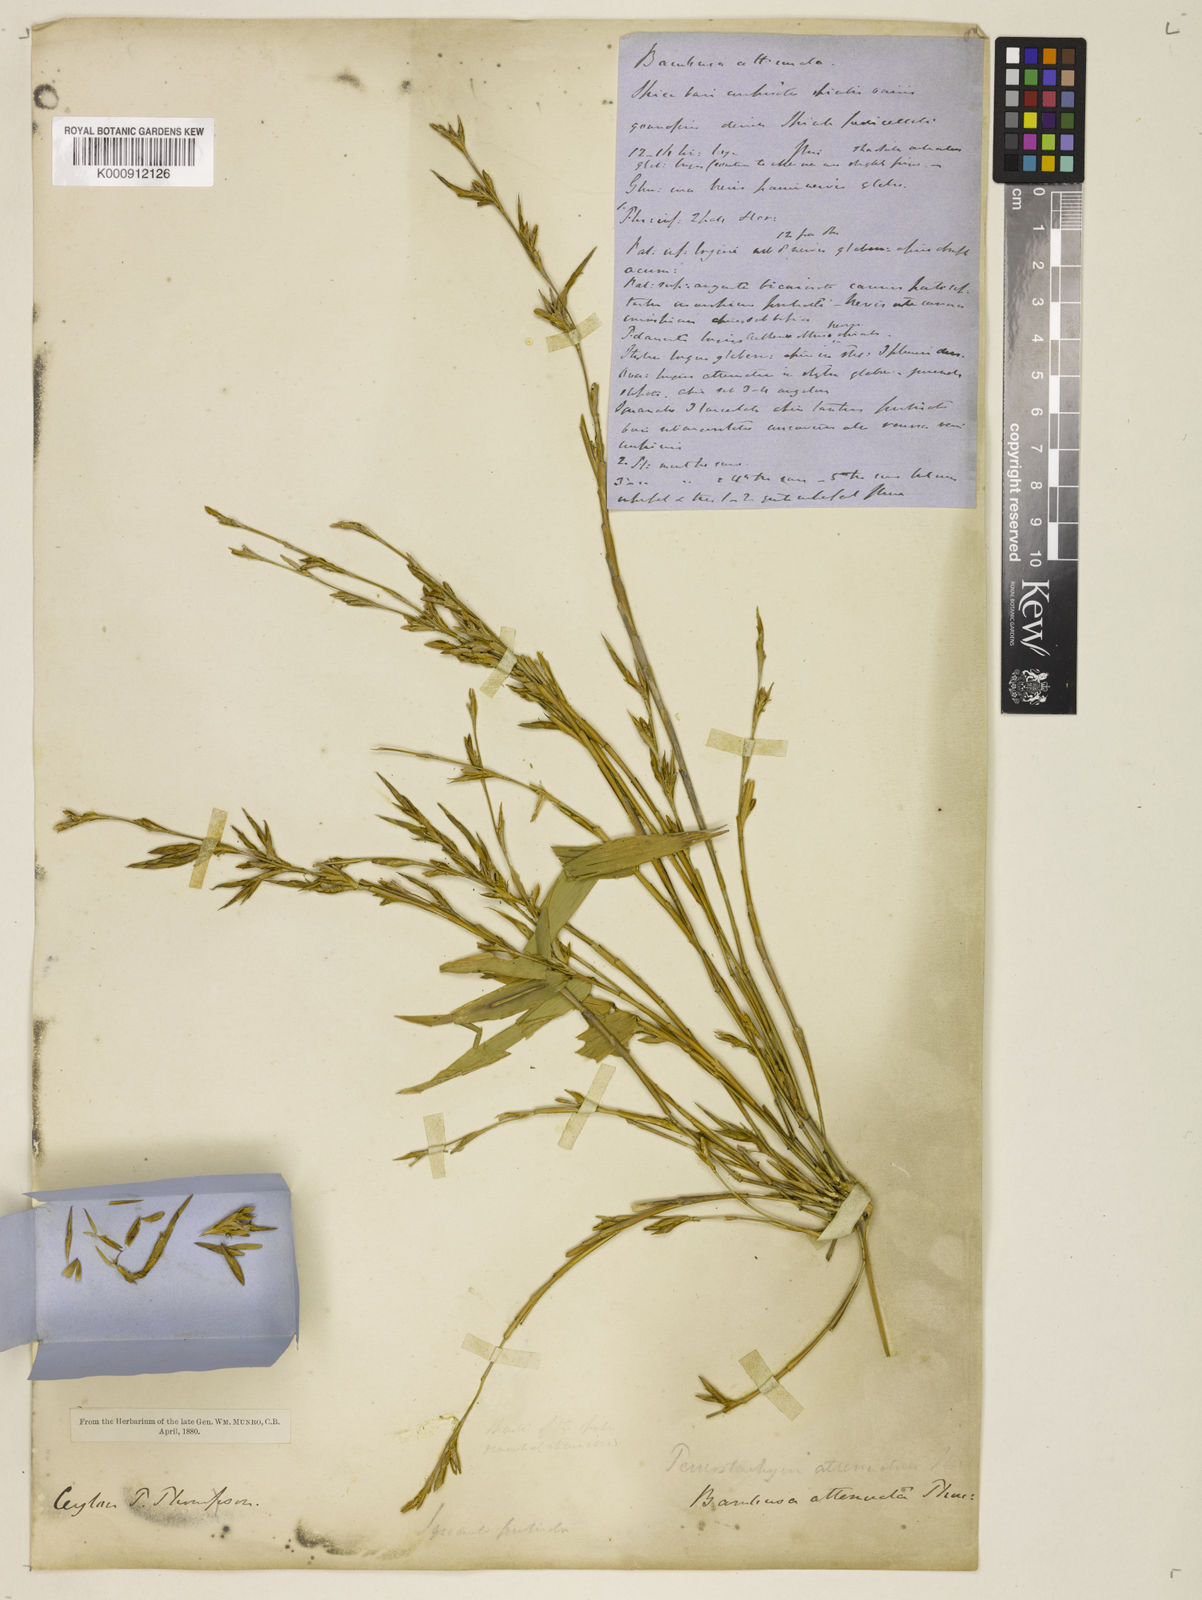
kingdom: Plantae
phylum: Tracheophyta
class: Liliopsida
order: Poales
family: Poaceae
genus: Davidsea
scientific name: Davidsea attenuata
